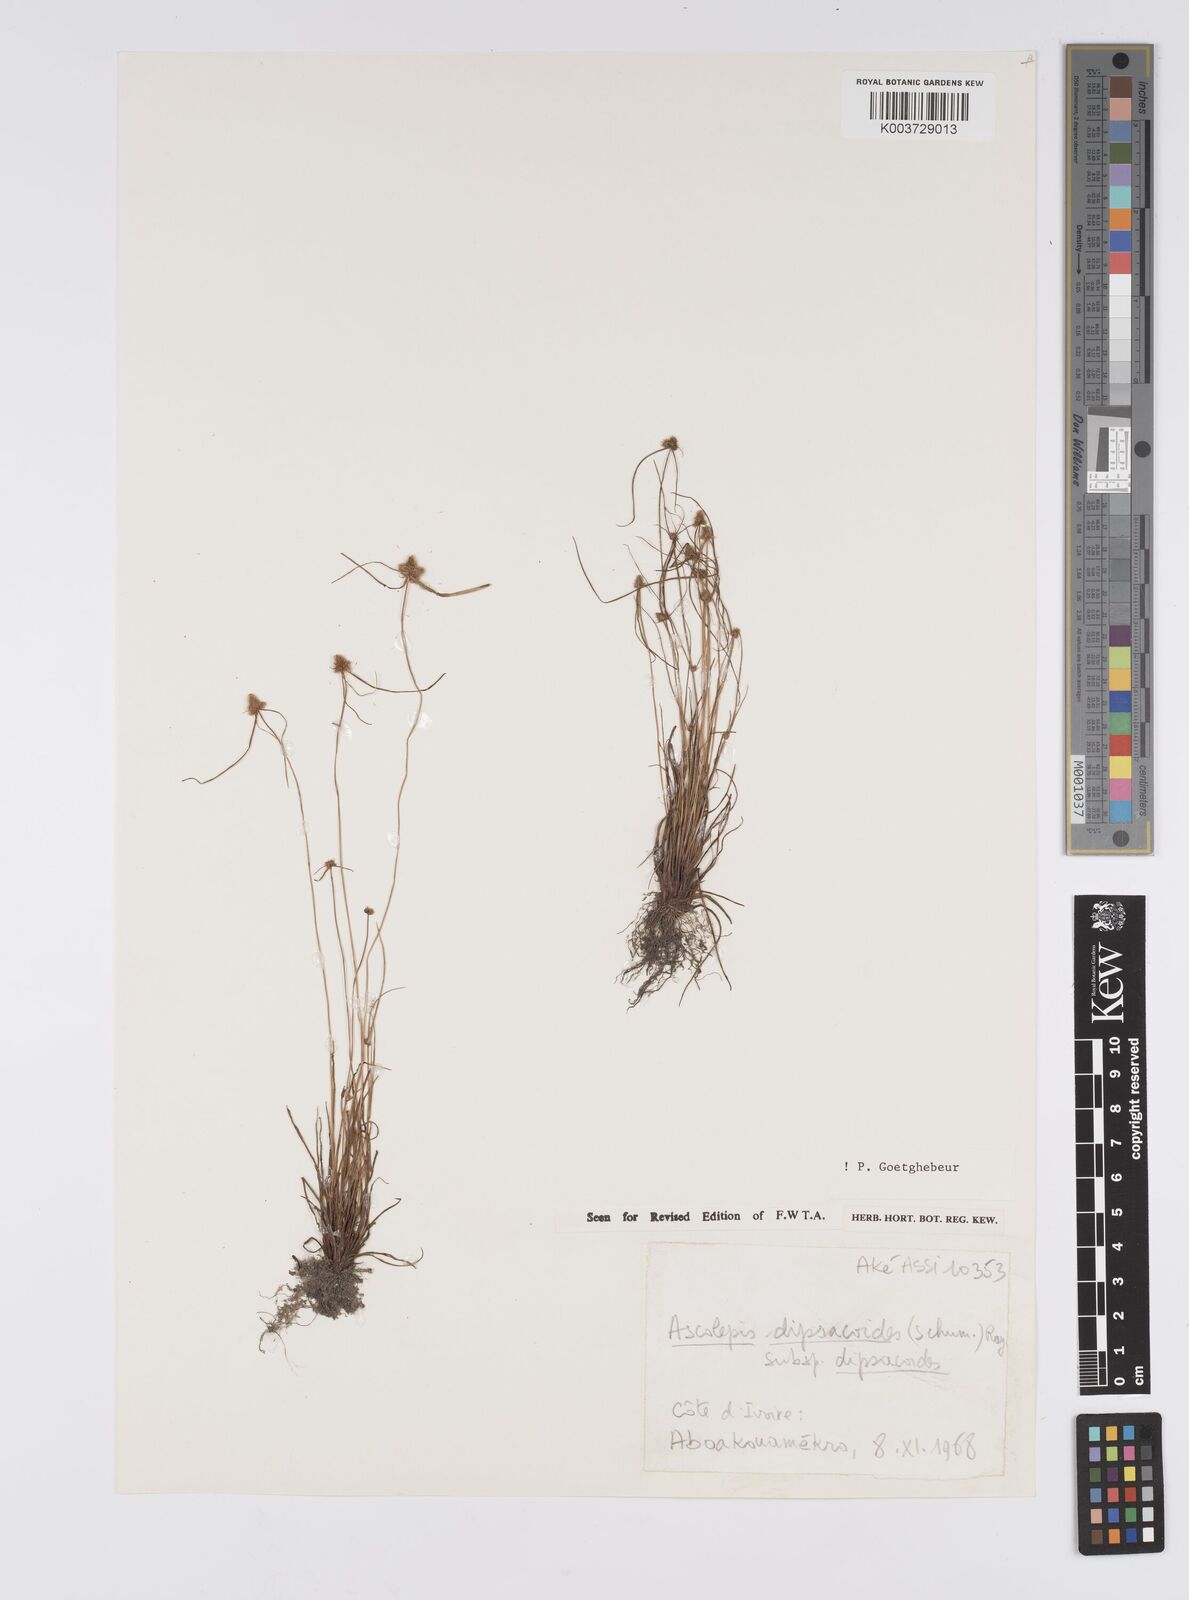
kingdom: Plantae
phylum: Tracheophyta
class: Liliopsida
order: Poales
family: Cyperaceae
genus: Cyperus
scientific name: Cyperus dipsacoides
